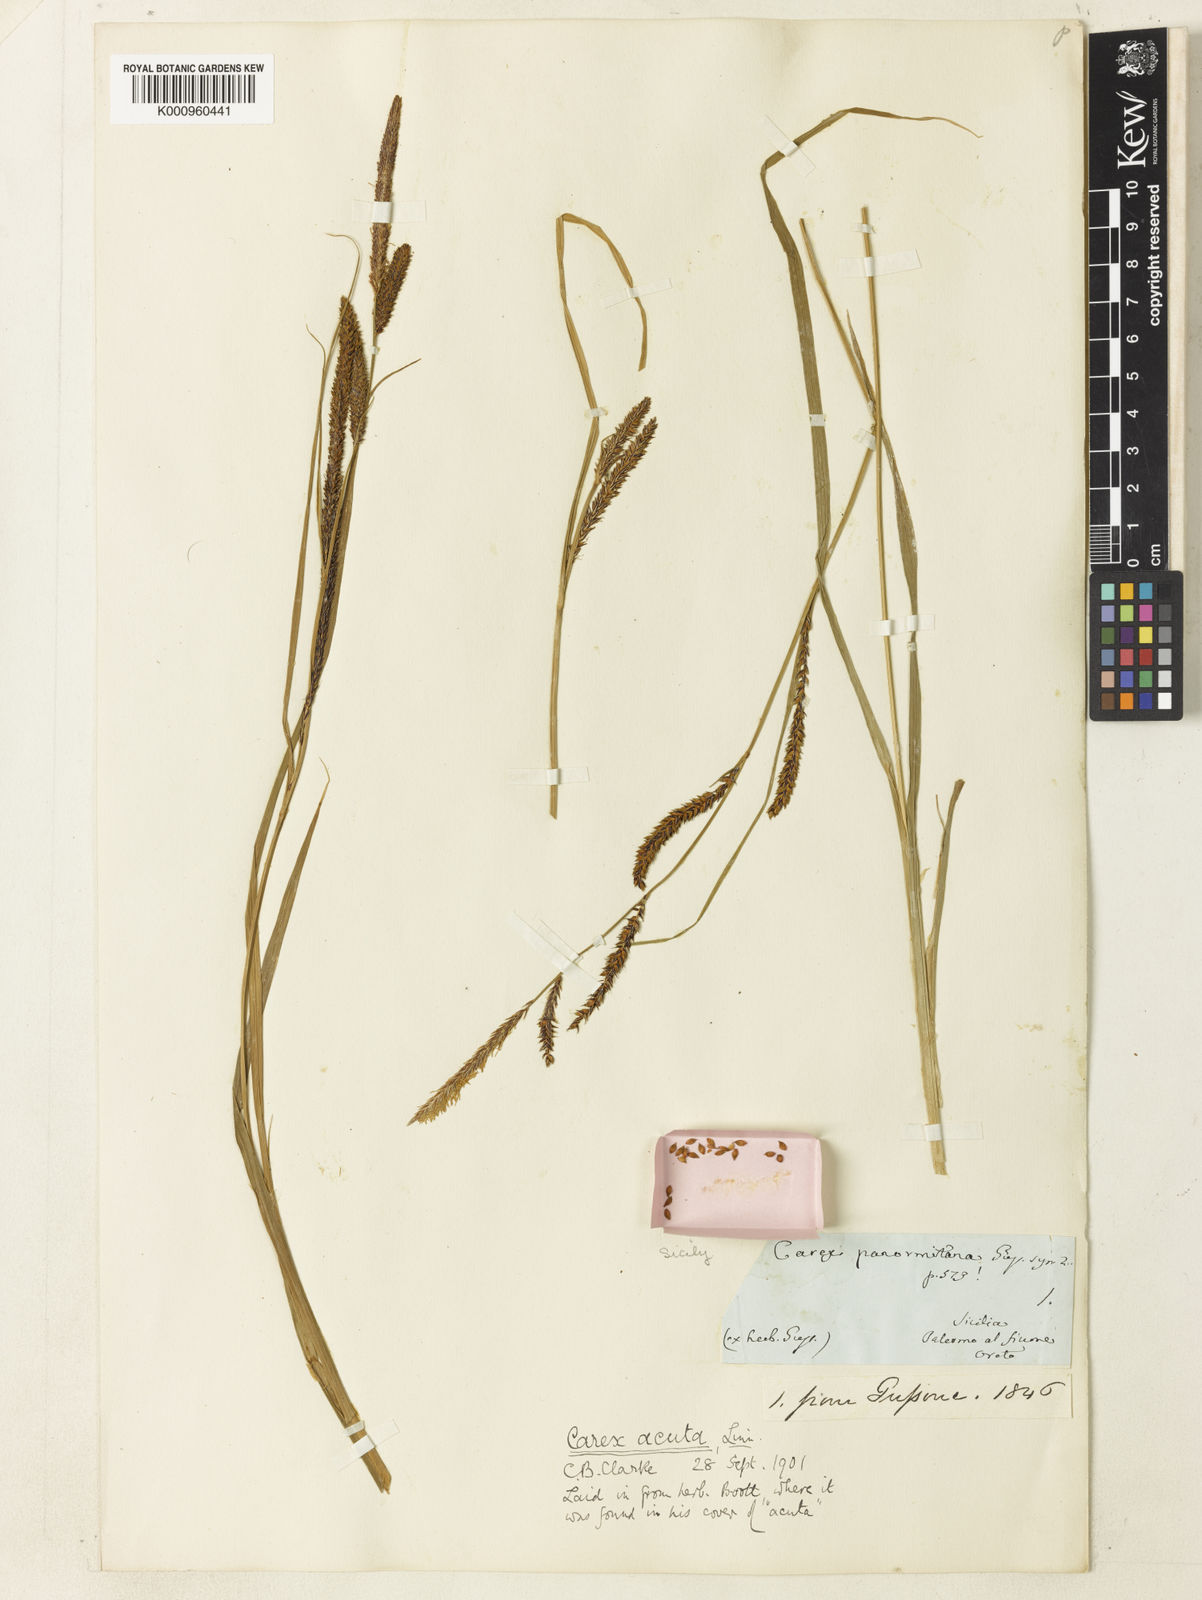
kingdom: Plantae
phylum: Tracheophyta
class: Liliopsida
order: Poales
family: Cyperaceae
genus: Carex
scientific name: Carex acuta
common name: Slender tufted-sedge
